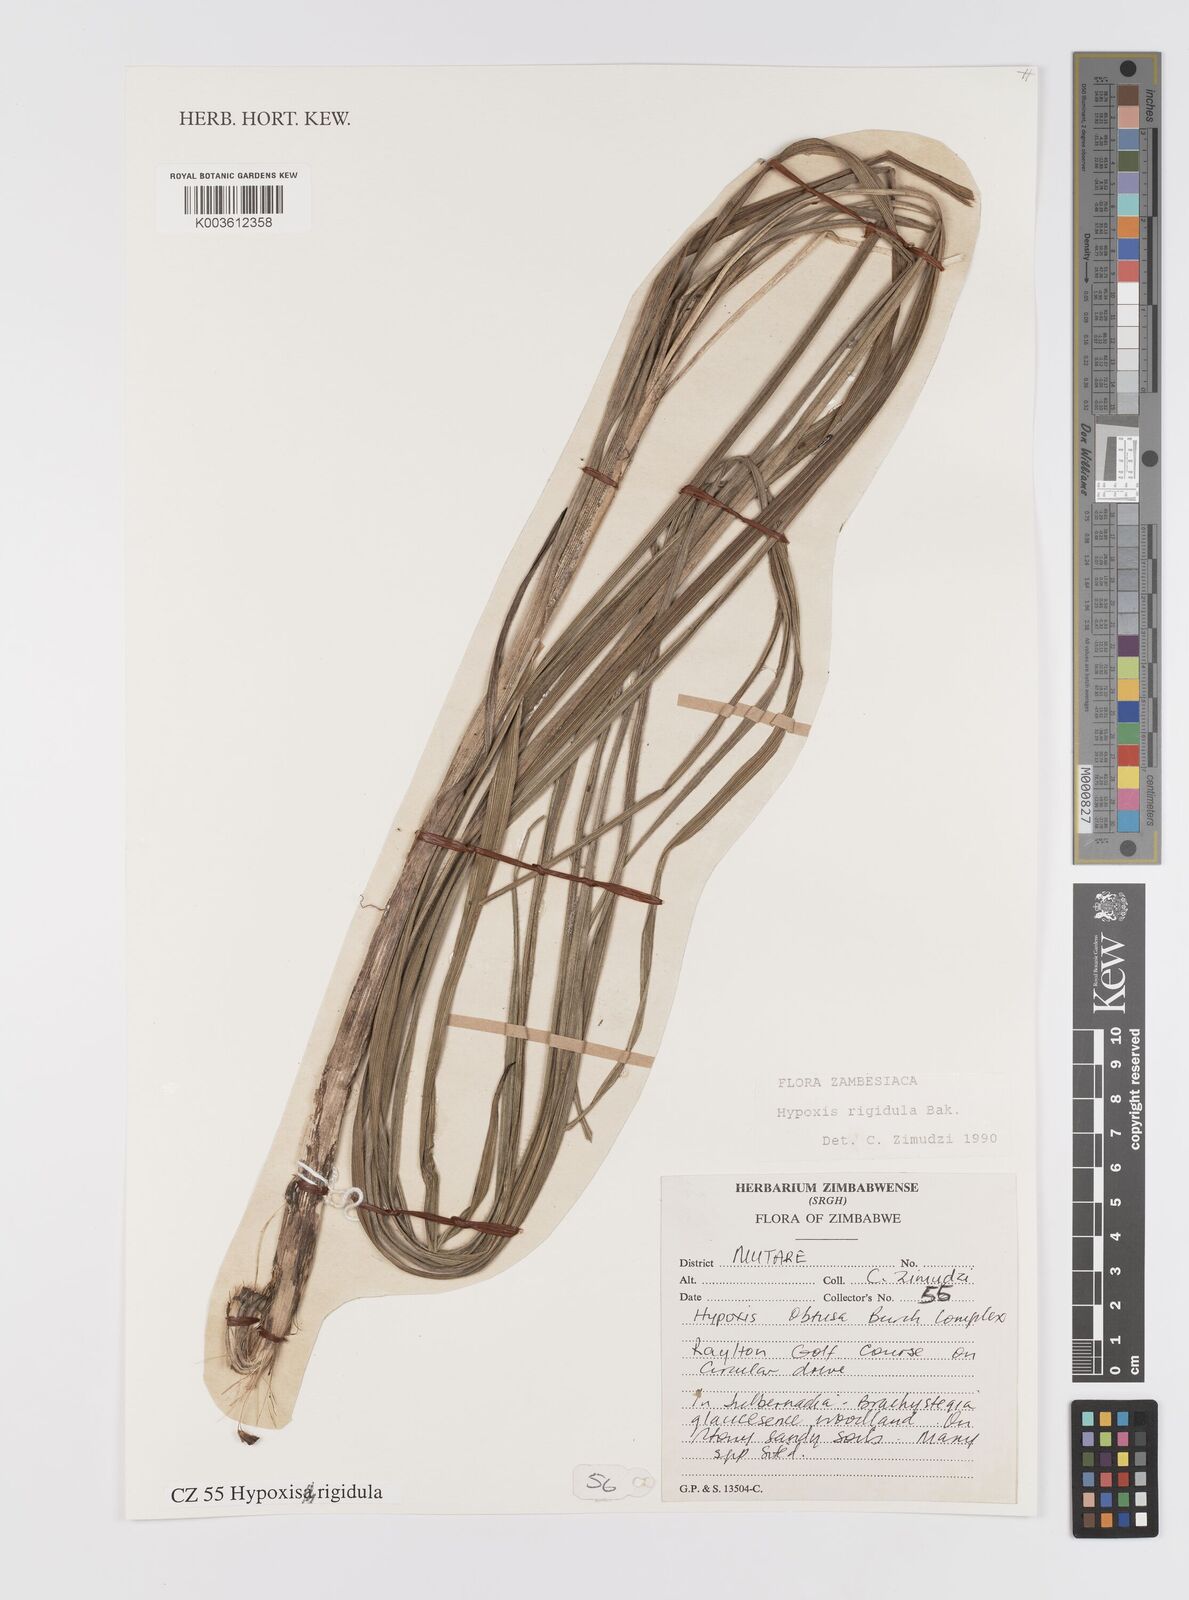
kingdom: Plantae
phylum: Tracheophyta
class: Liliopsida
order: Asparagales
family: Hypoxidaceae
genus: Hypoxis
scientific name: Hypoxis rigidula
